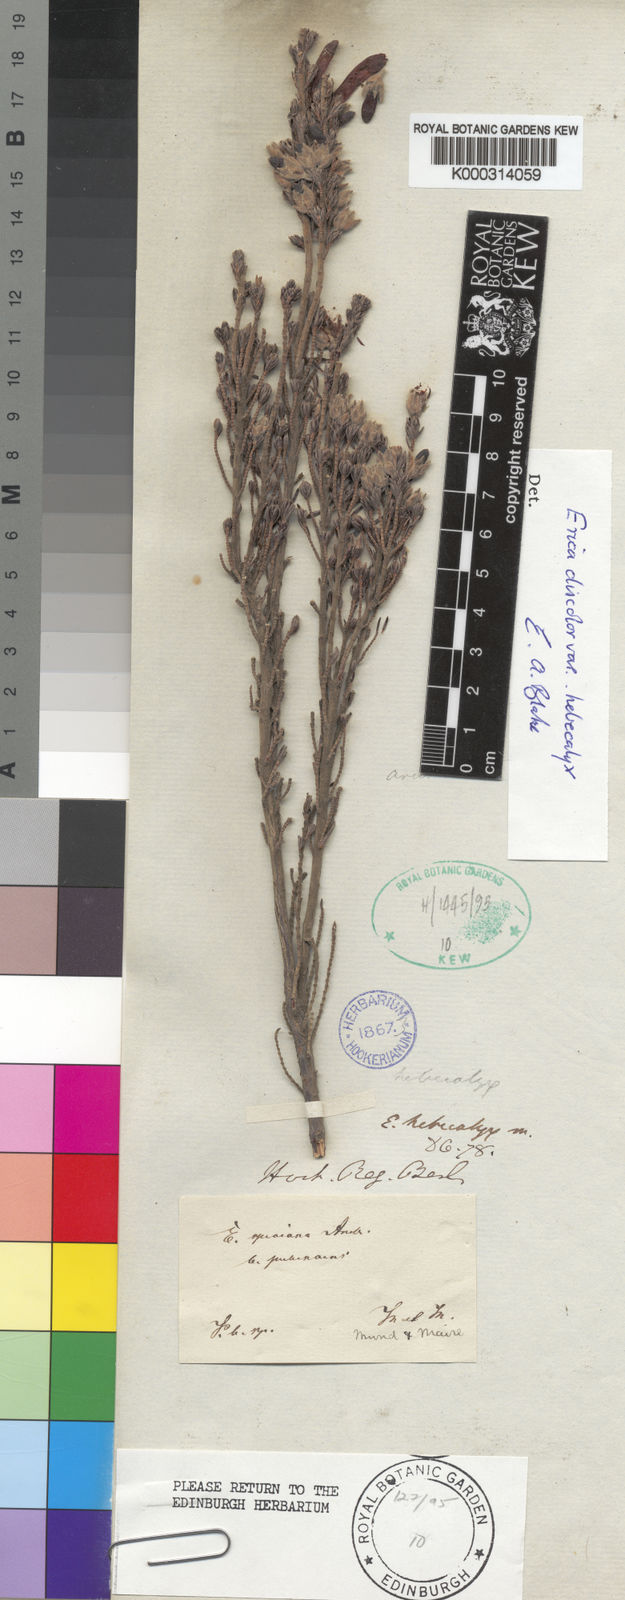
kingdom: Plantae
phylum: Tracheophyta
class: Magnoliopsida
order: Ericales
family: Ericaceae
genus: Erica
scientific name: Erica discolor
